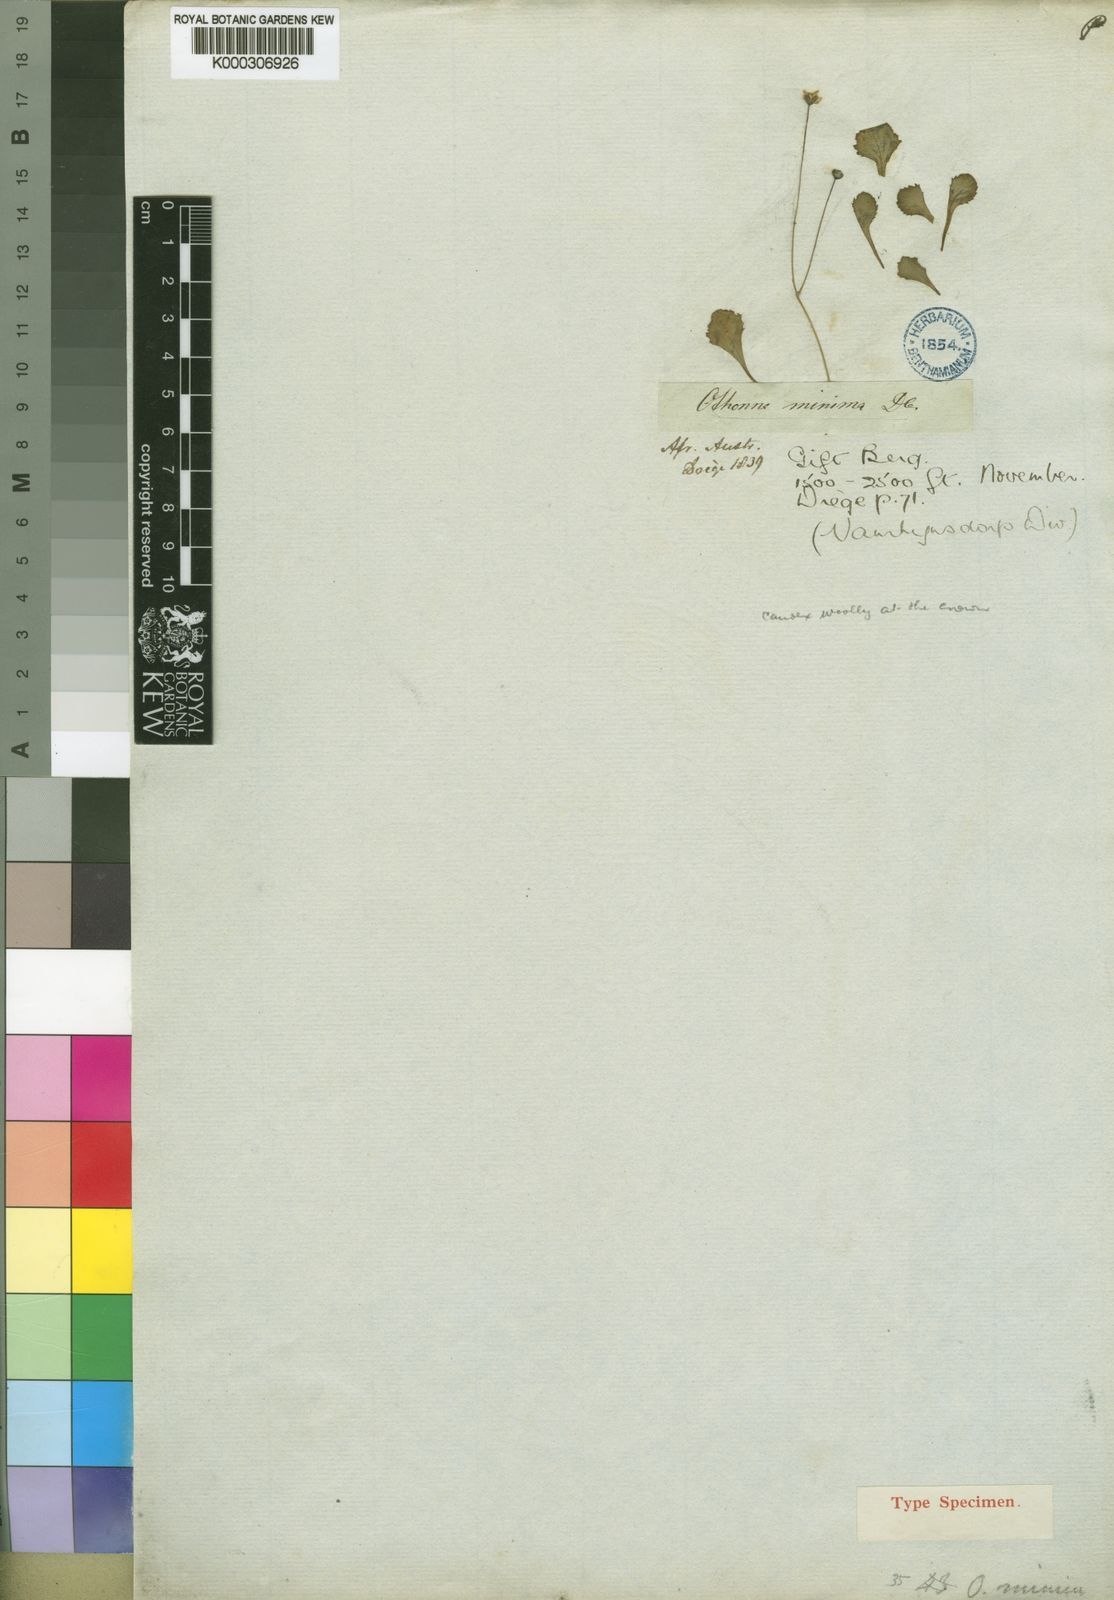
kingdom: Plantae
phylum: Tracheophyta
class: Magnoliopsida
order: Asterales
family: Asteraceae
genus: Crassothonna
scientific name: Crassothonna cacalioides
